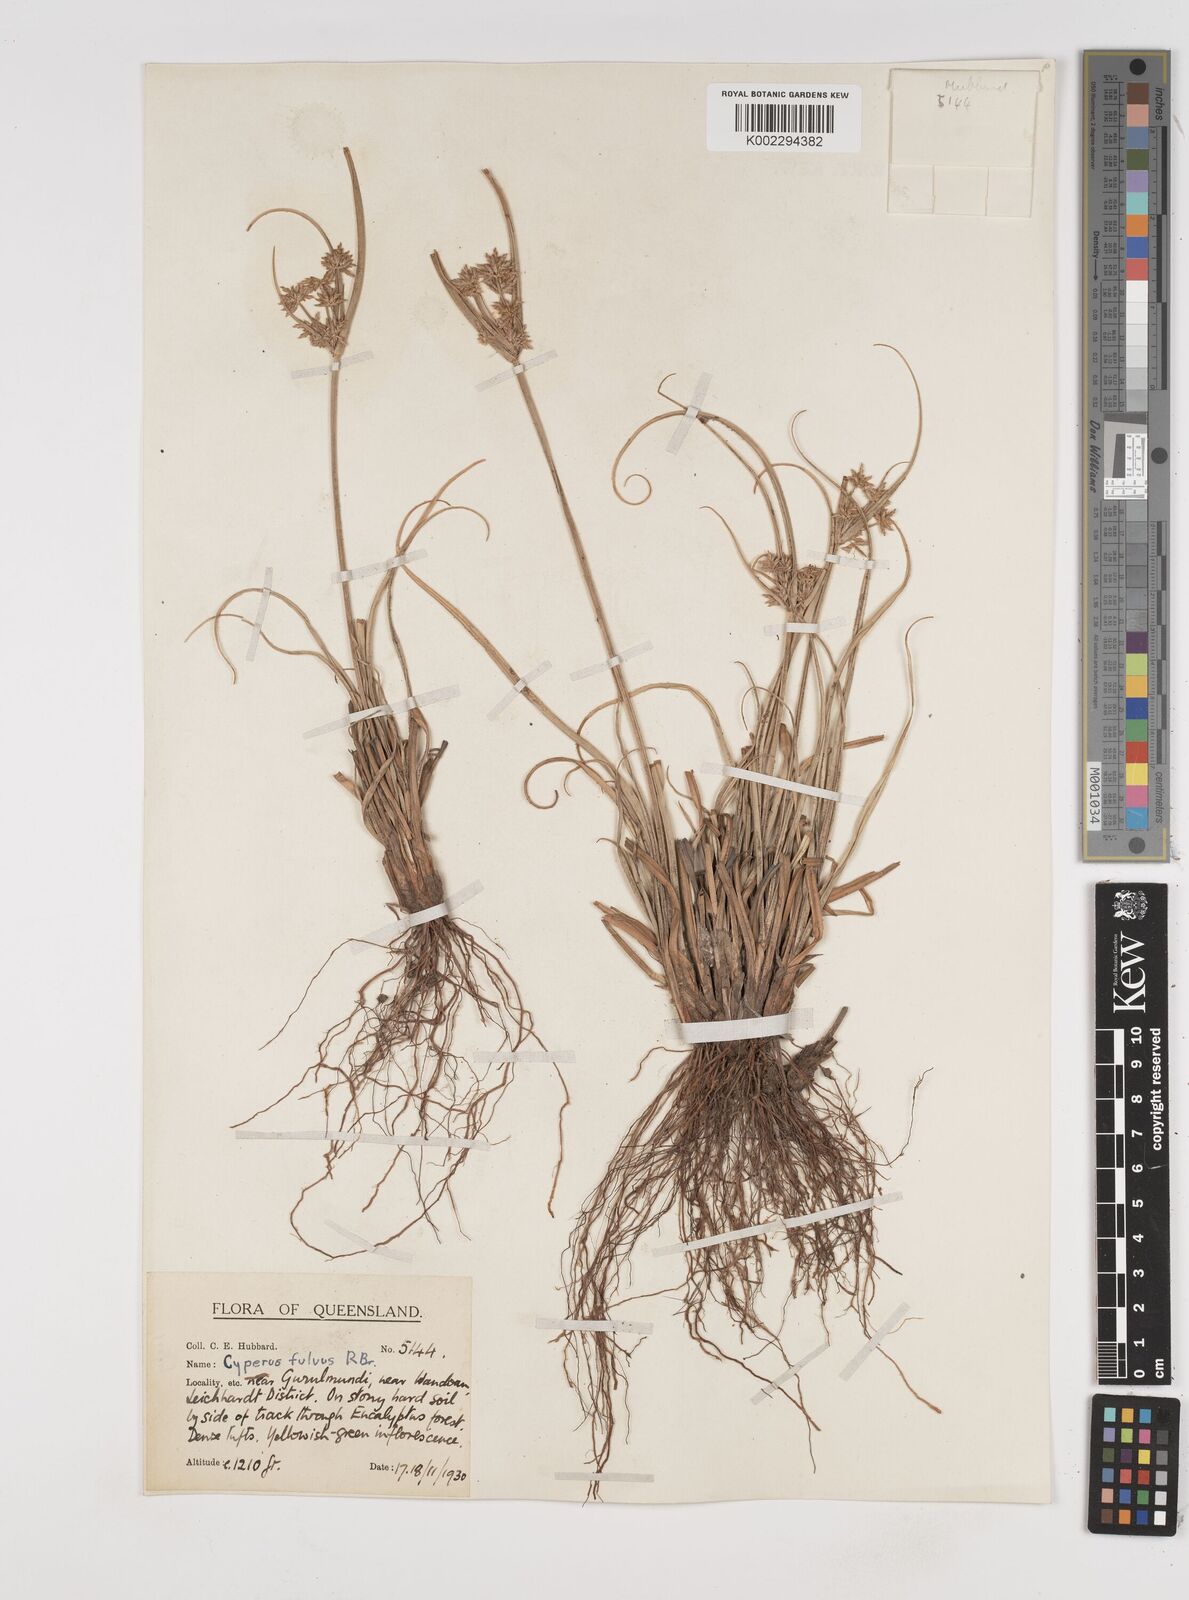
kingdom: Plantae
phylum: Tracheophyta
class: Liliopsida
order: Poales
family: Cyperaceae
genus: Cyperus
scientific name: Cyperus fulvus
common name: Sticky sedge
